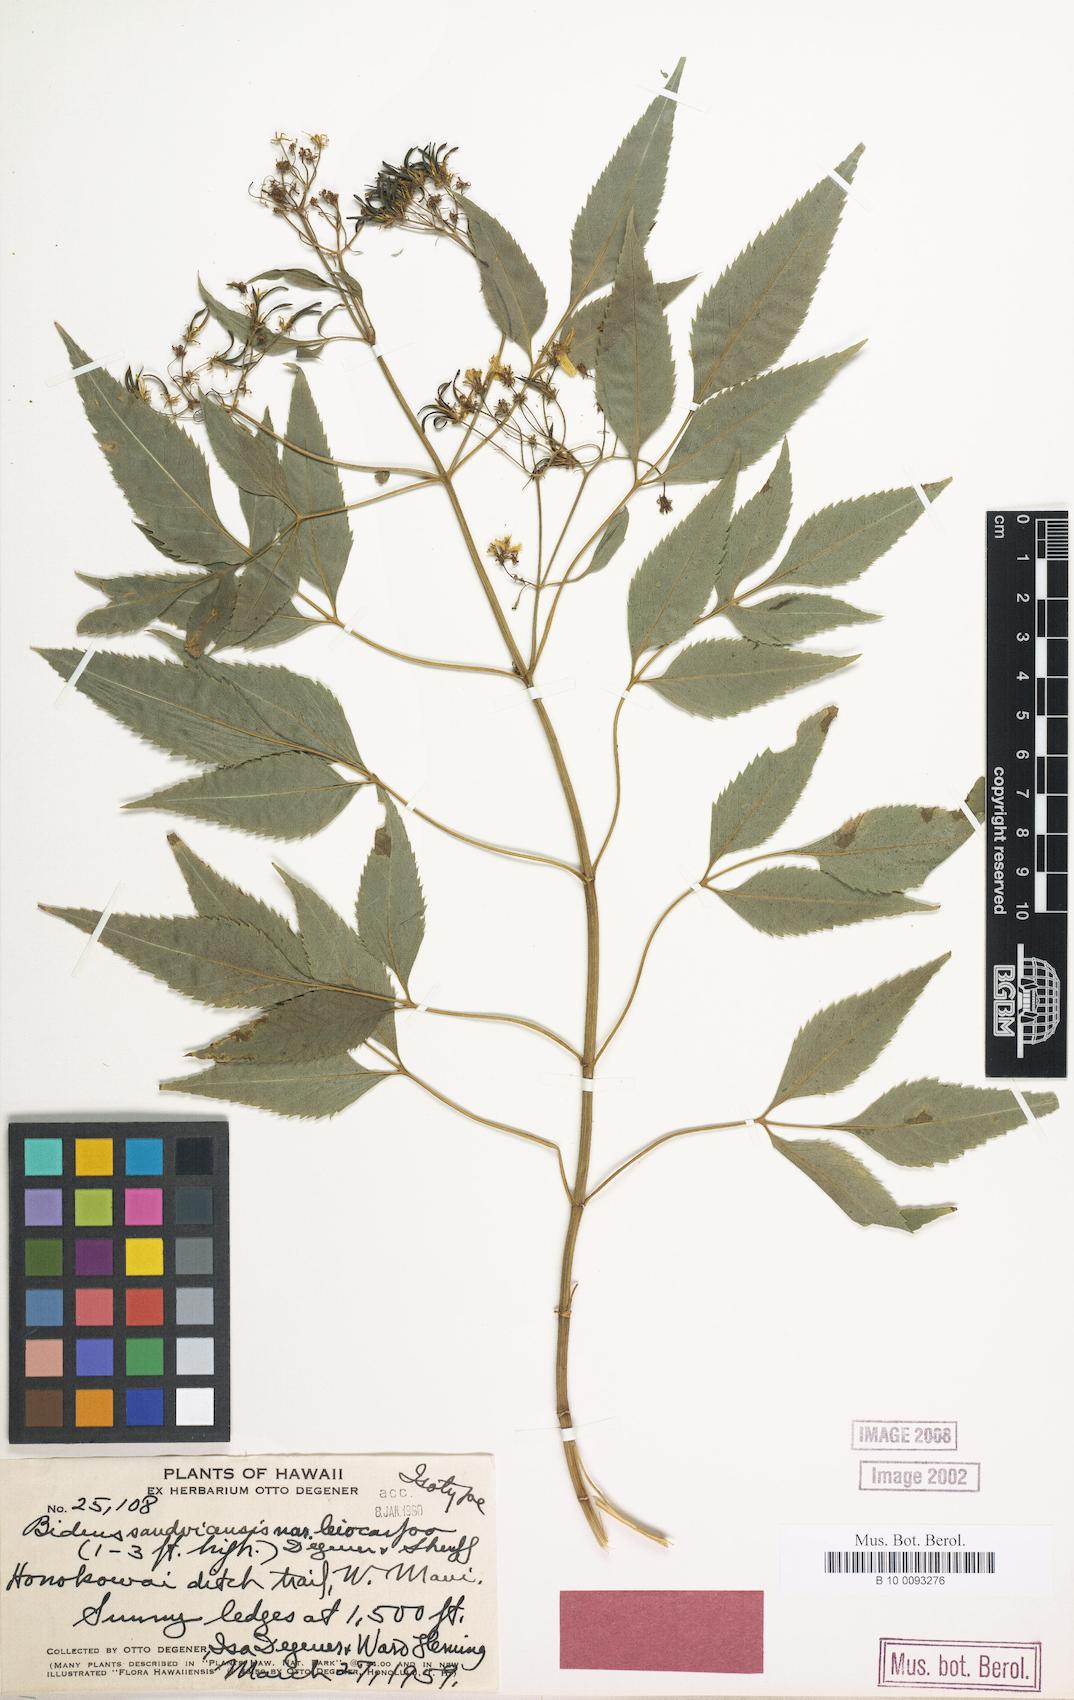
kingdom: Plantae
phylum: Tracheophyta
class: Magnoliopsida
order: Asterales
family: Asteraceae
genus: Bidens
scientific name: Bidens micrantha
